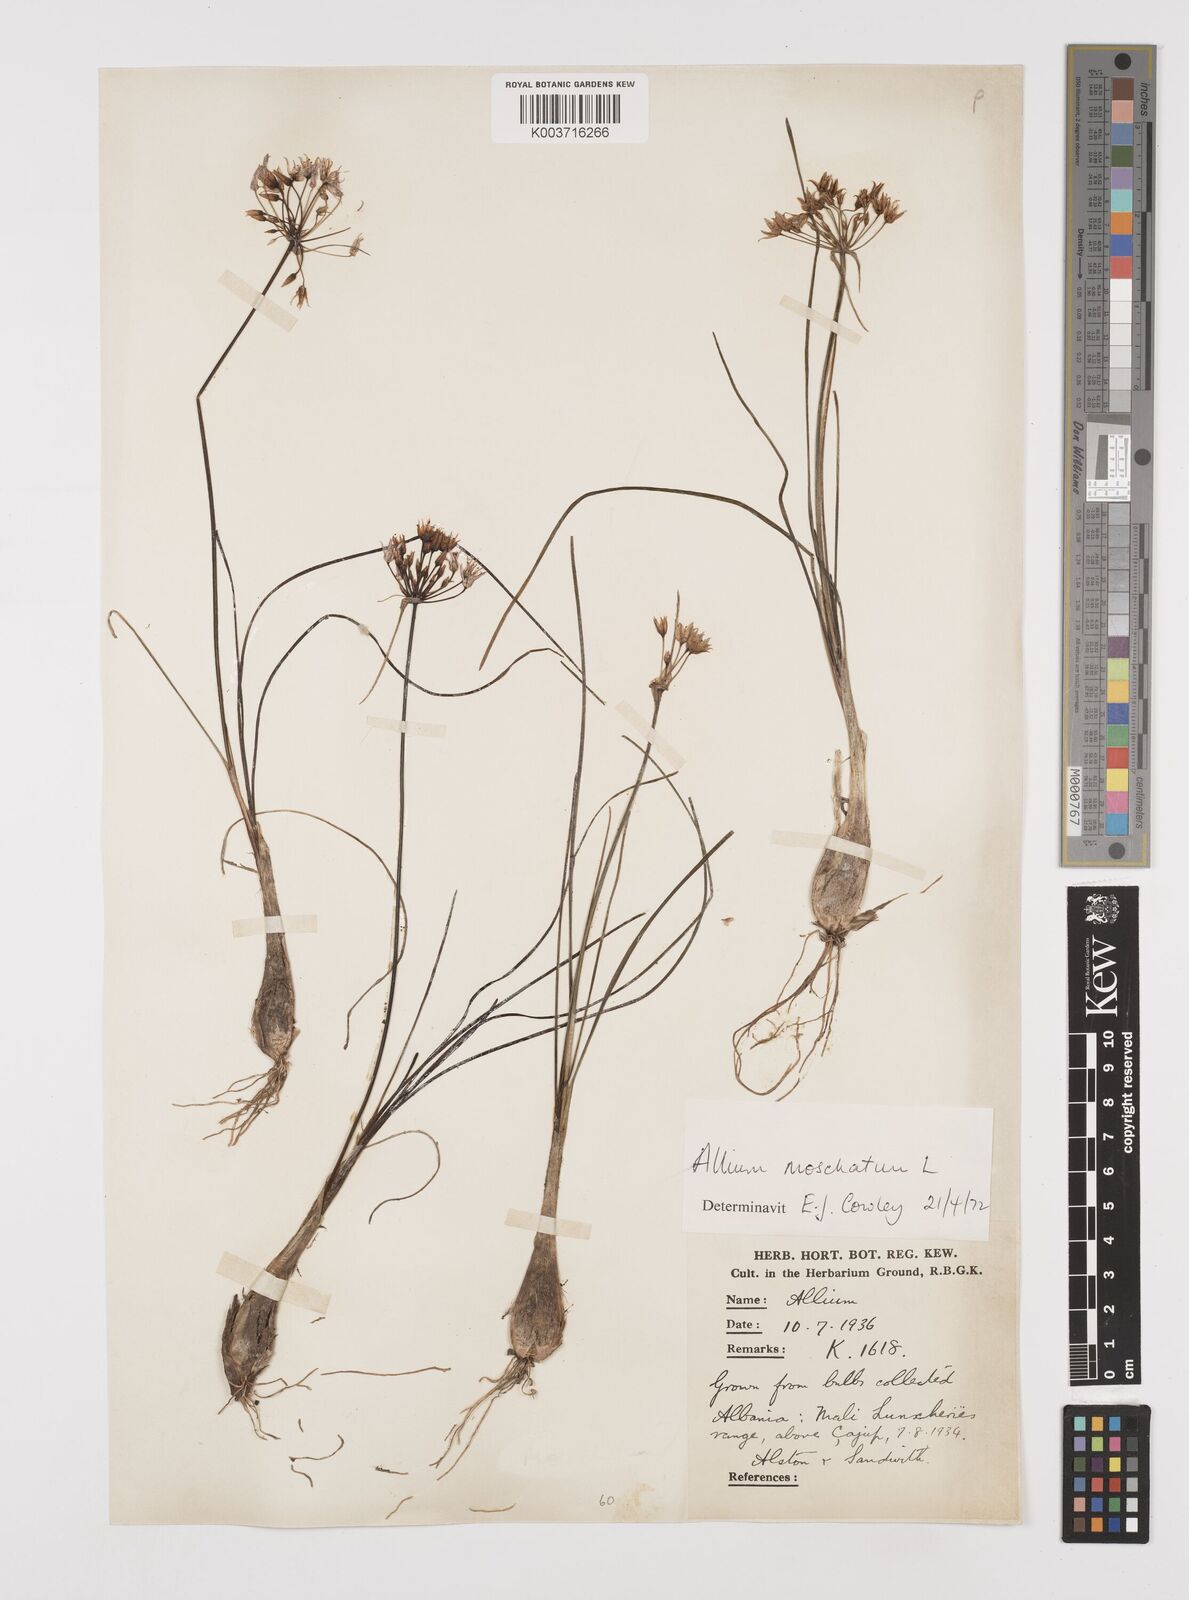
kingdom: Plantae
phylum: Tracheophyta
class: Liliopsida
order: Asparagales
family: Amaryllidaceae
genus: Allium
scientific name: Allium moschatum
